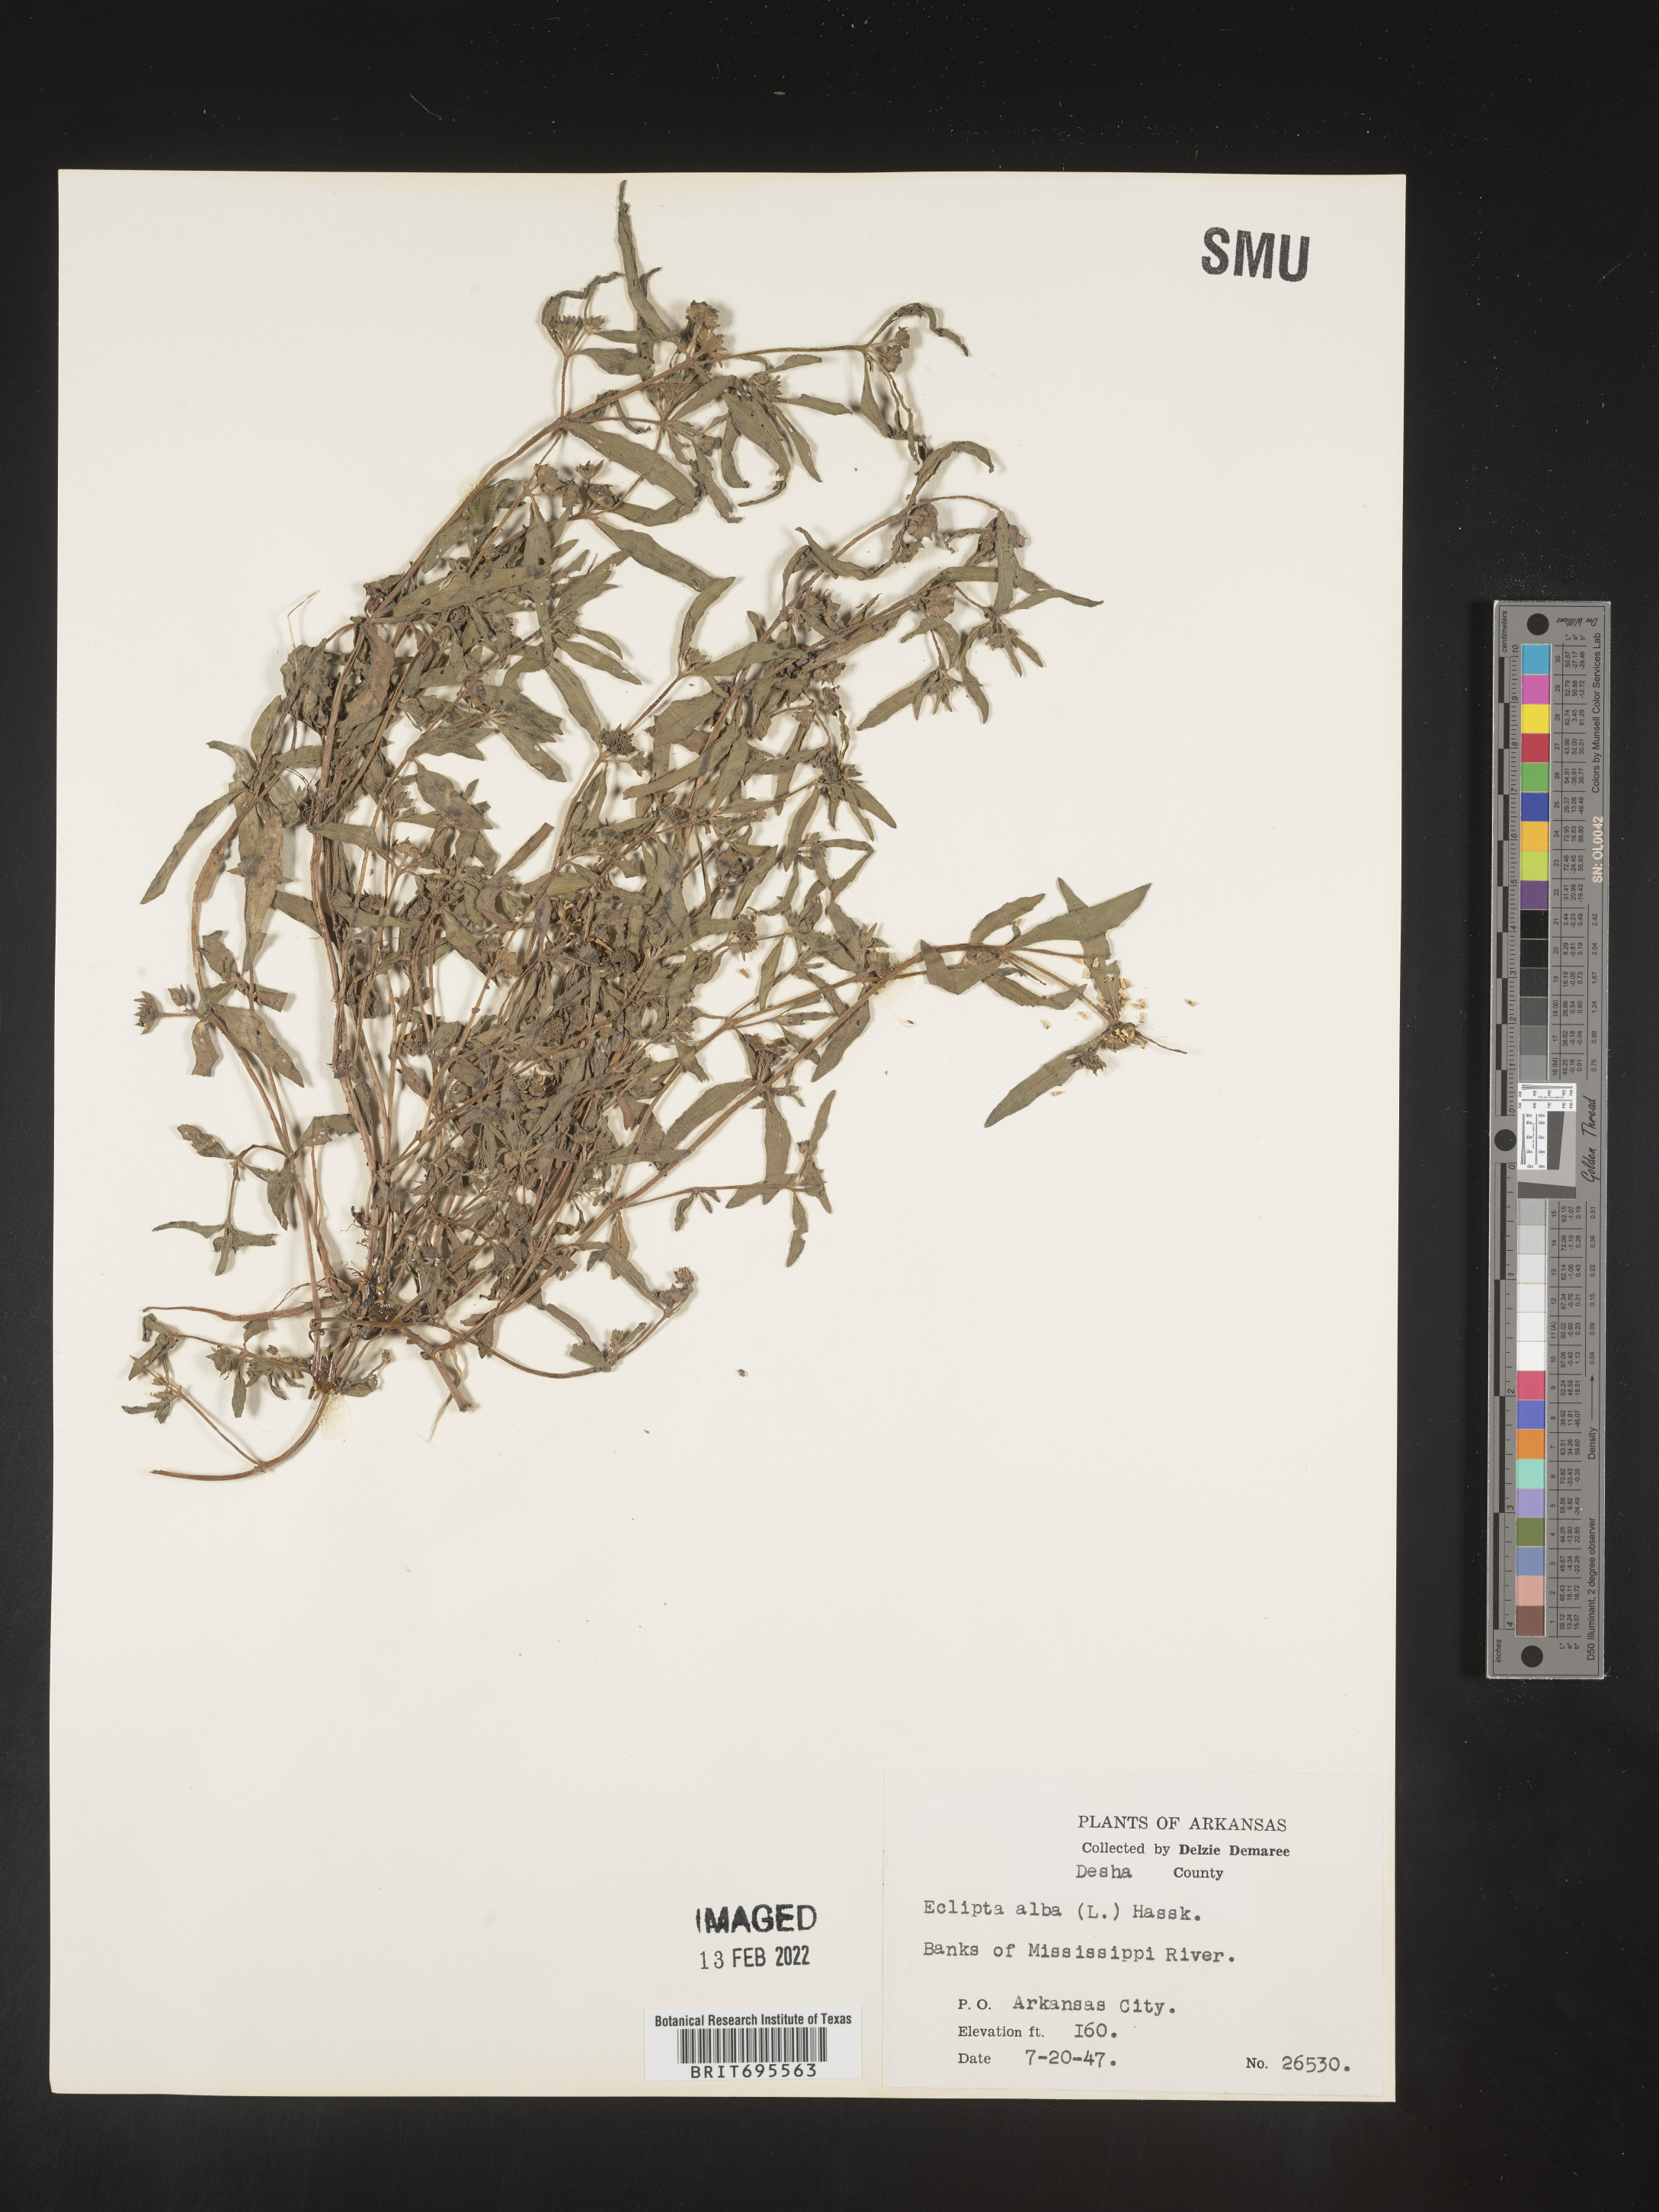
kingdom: Plantae
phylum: Tracheophyta
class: Magnoliopsida
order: Asterales
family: Asteraceae
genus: Eclipta
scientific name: Eclipta alba
